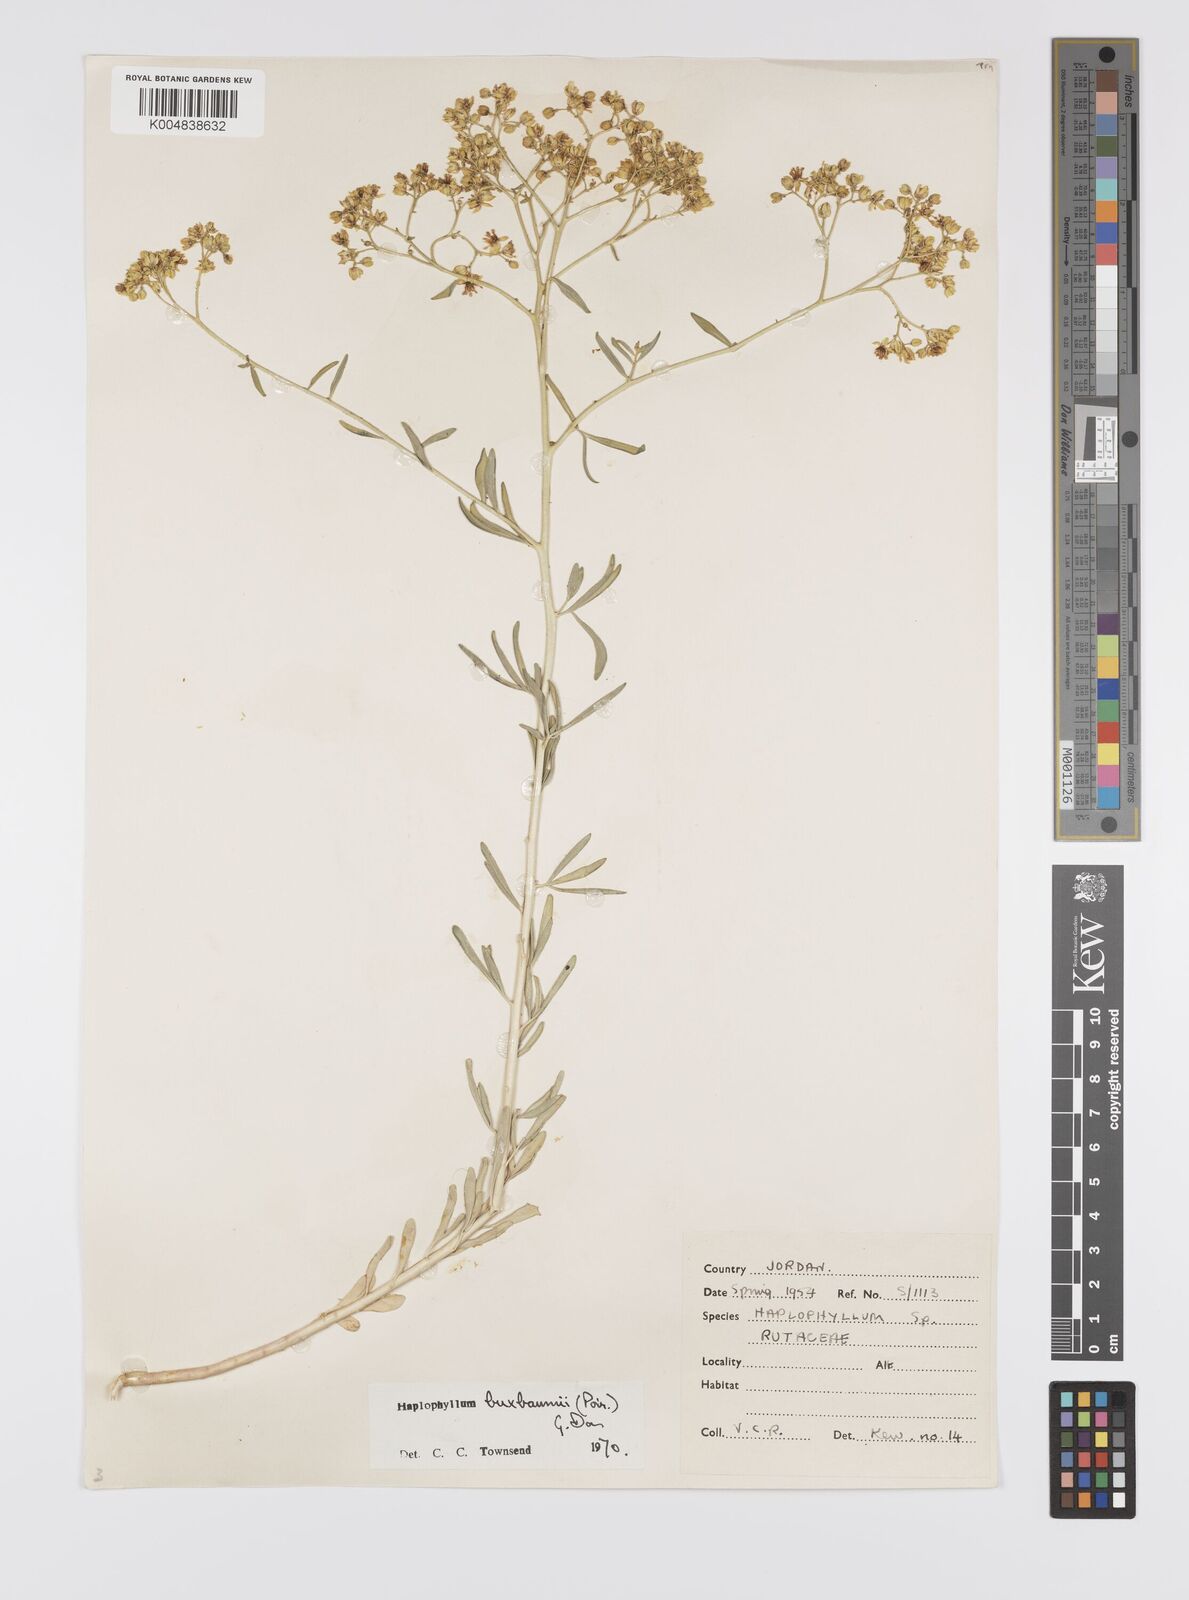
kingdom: Plantae
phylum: Tracheophyta
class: Magnoliopsida
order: Sapindales
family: Rutaceae
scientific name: Rutaceae
